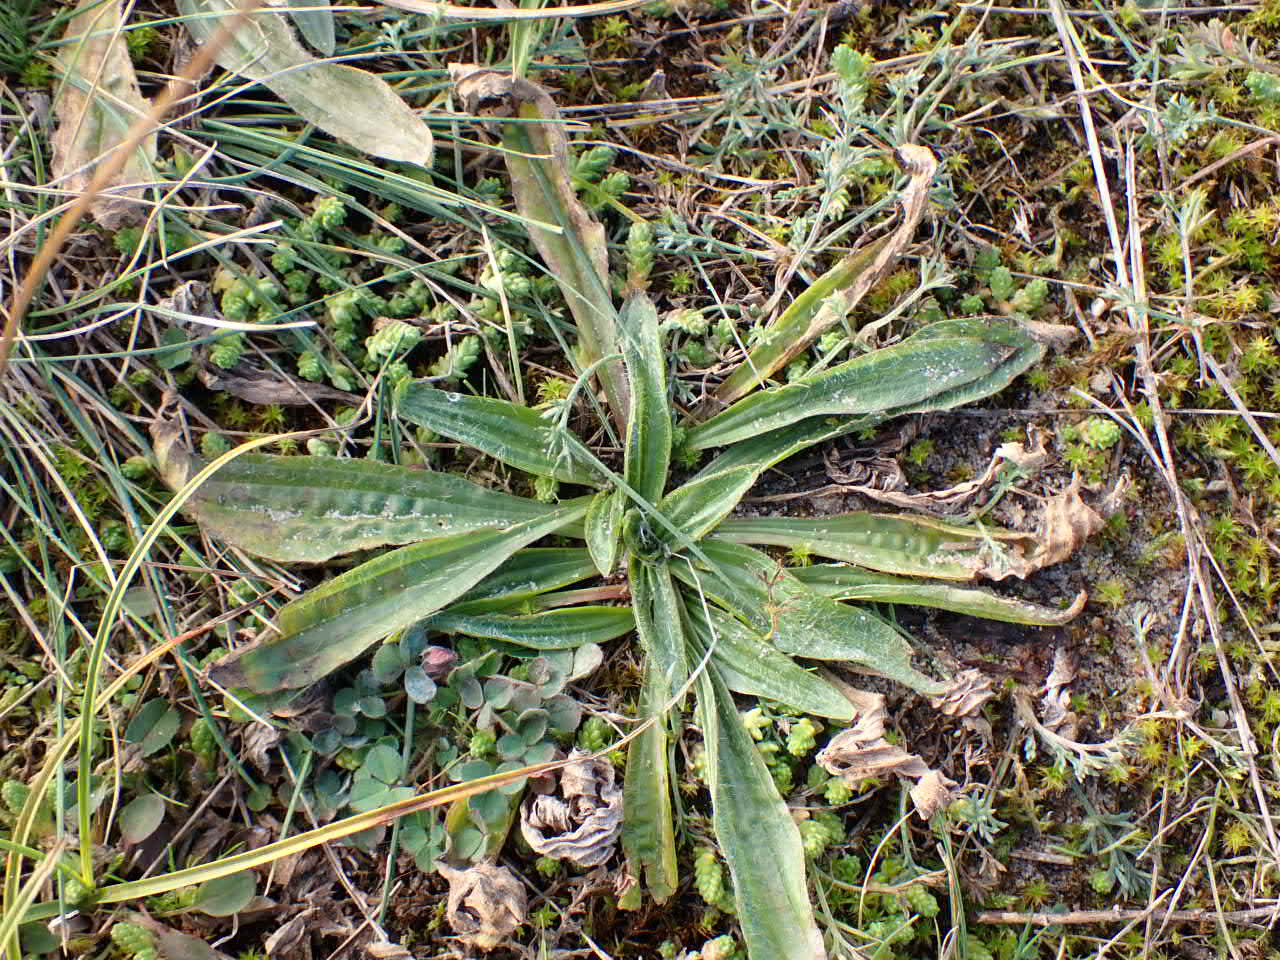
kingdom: Plantae
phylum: Tracheophyta
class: Magnoliopsida
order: Lamiales
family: Plantaginaceae
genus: Plantago
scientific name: Plantago lanceolata
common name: Lancet-vejbred
